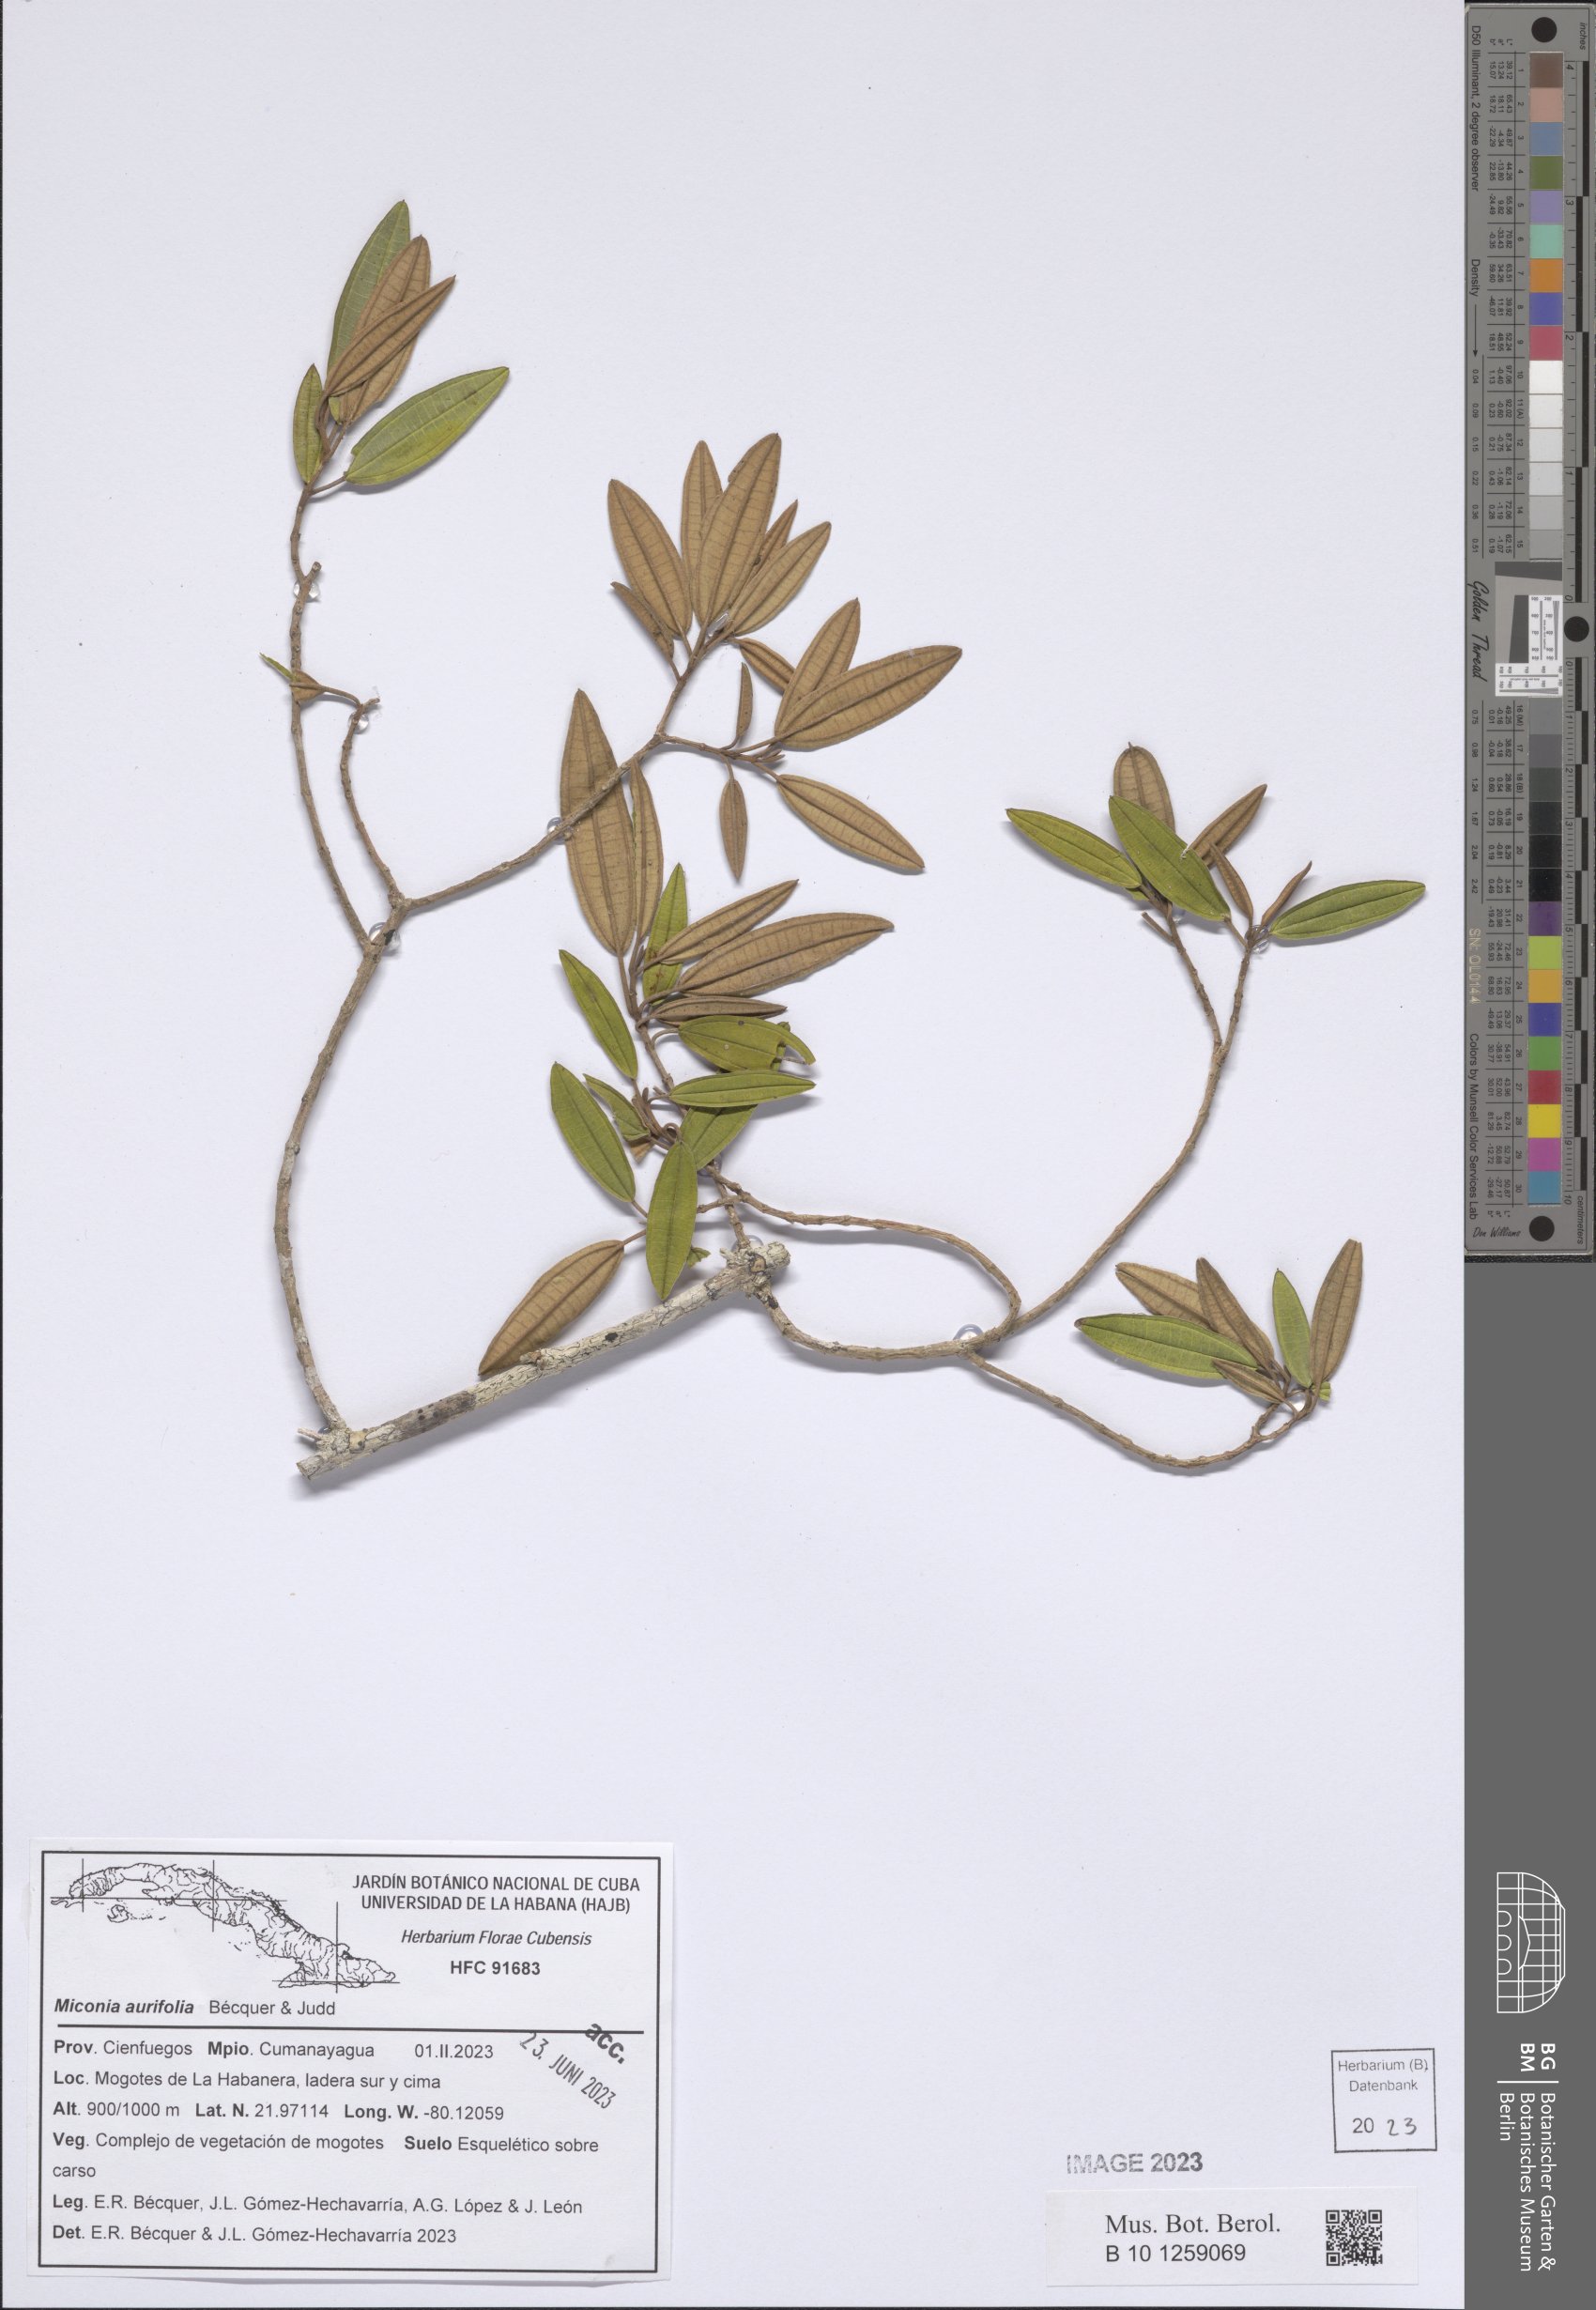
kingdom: Plantae
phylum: Tracheophyta
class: Magnoliopsida
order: Myrtales
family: Melastomataceae
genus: Miconia
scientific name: Miconia aurifolia
